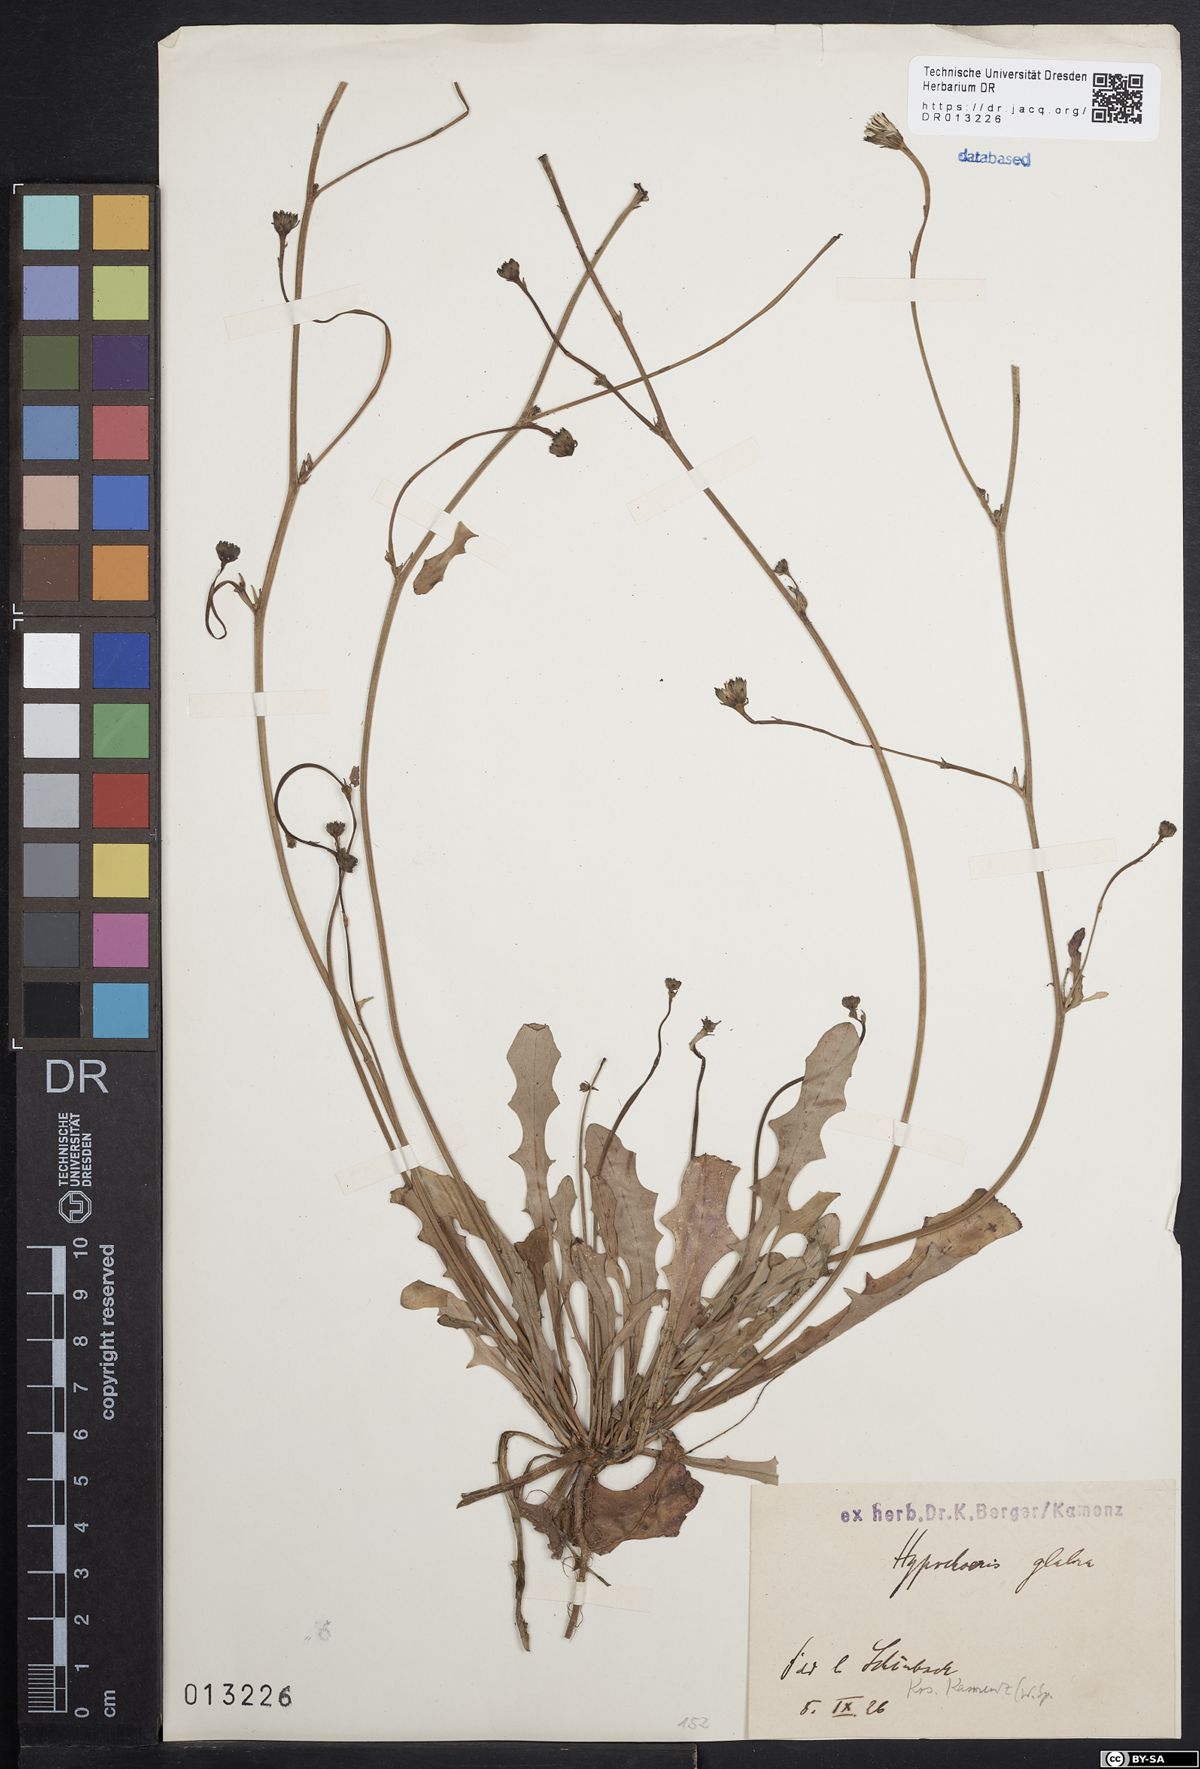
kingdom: Plantae
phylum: Tracheophyta
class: Magnoliopsida
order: Asterales
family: Asteraceae
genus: Hypochaeris
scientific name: Hypochaeris glabra
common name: Smooth catsear
